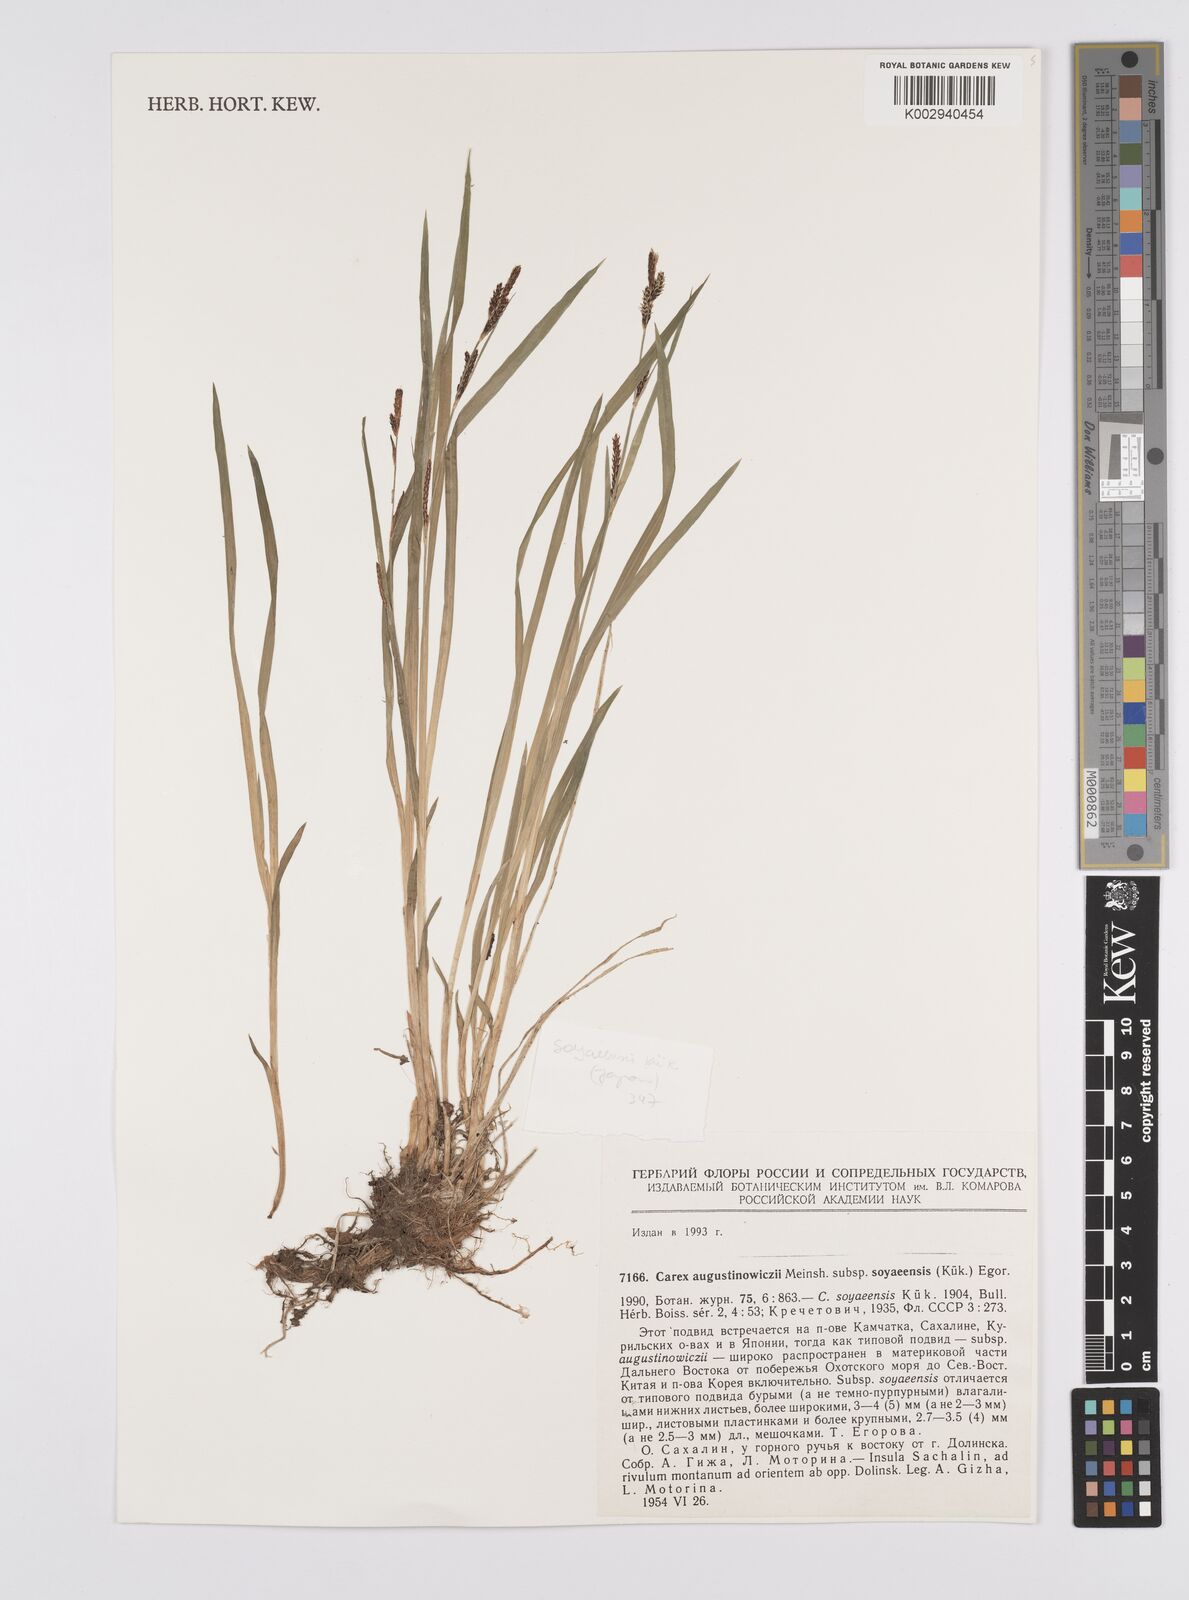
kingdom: Plantae
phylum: Tracheophyta
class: Liliopsida
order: Poales
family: Cyperaceae
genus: Carex
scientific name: Carex augustinowiczii
